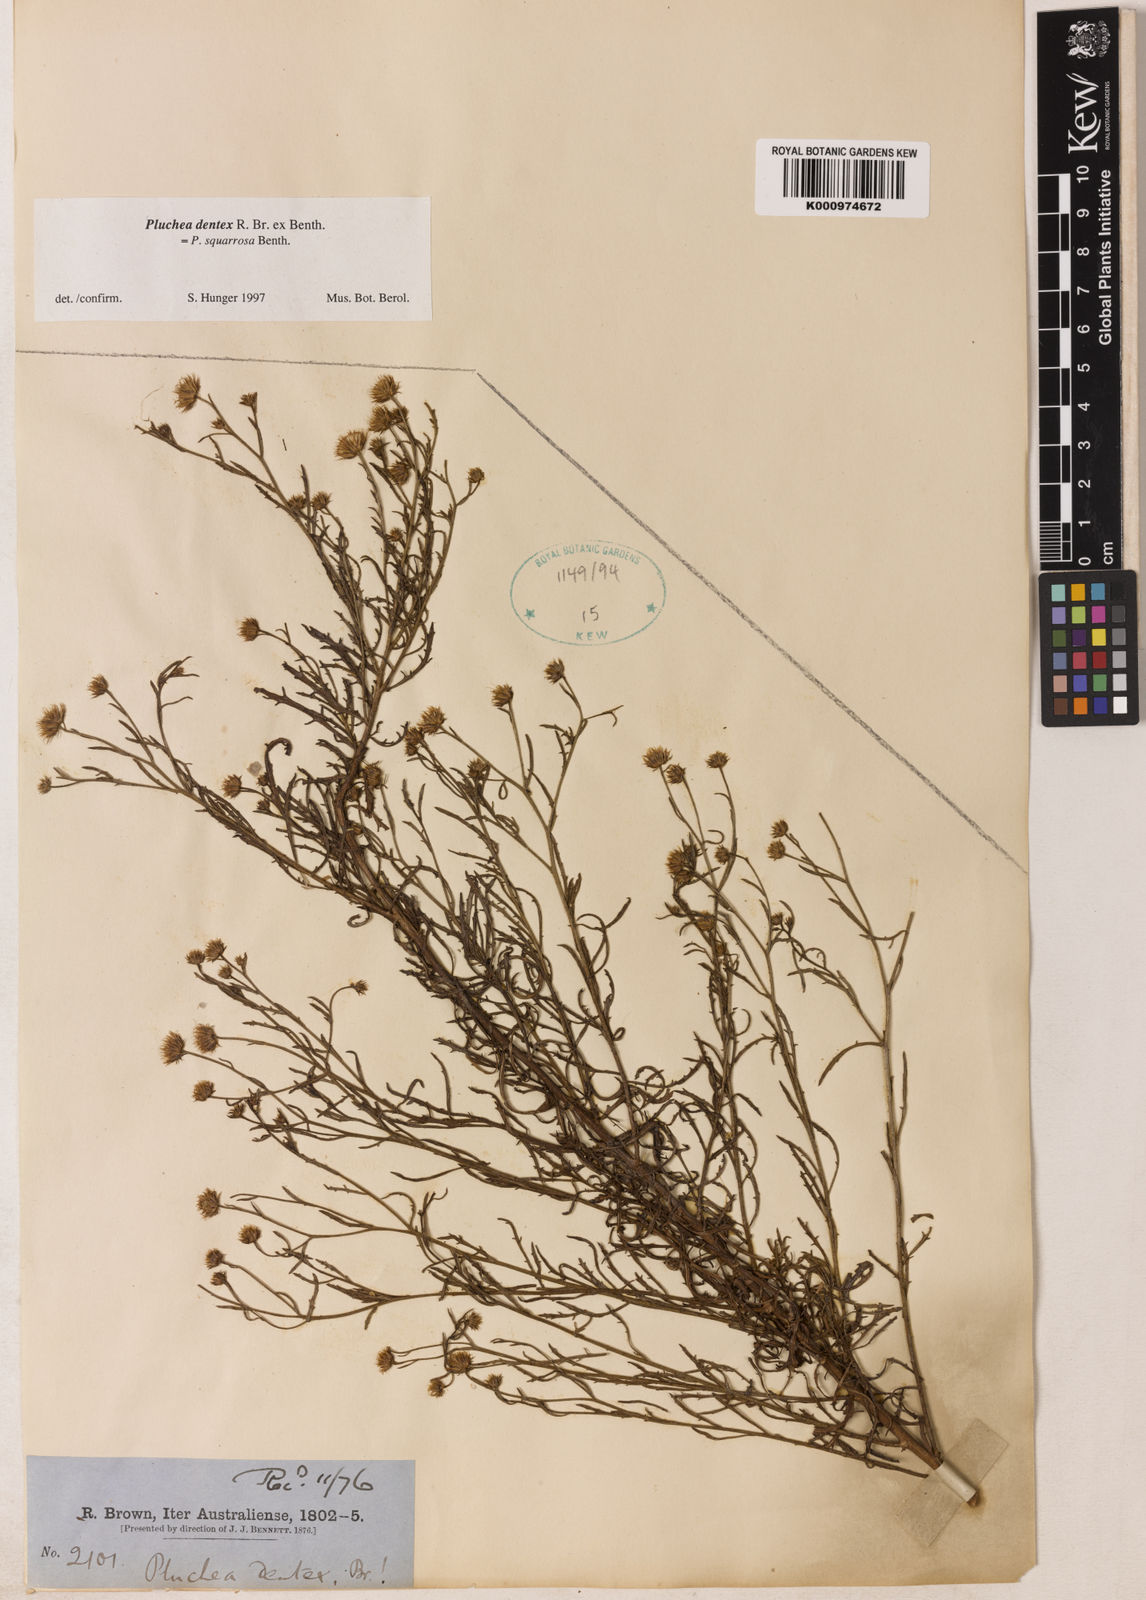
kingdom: Plantae
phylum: Tracheophyta
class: Magnoliopsida
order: Asterales
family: Asteraceae
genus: Pluchea
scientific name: Pluchea dentex
